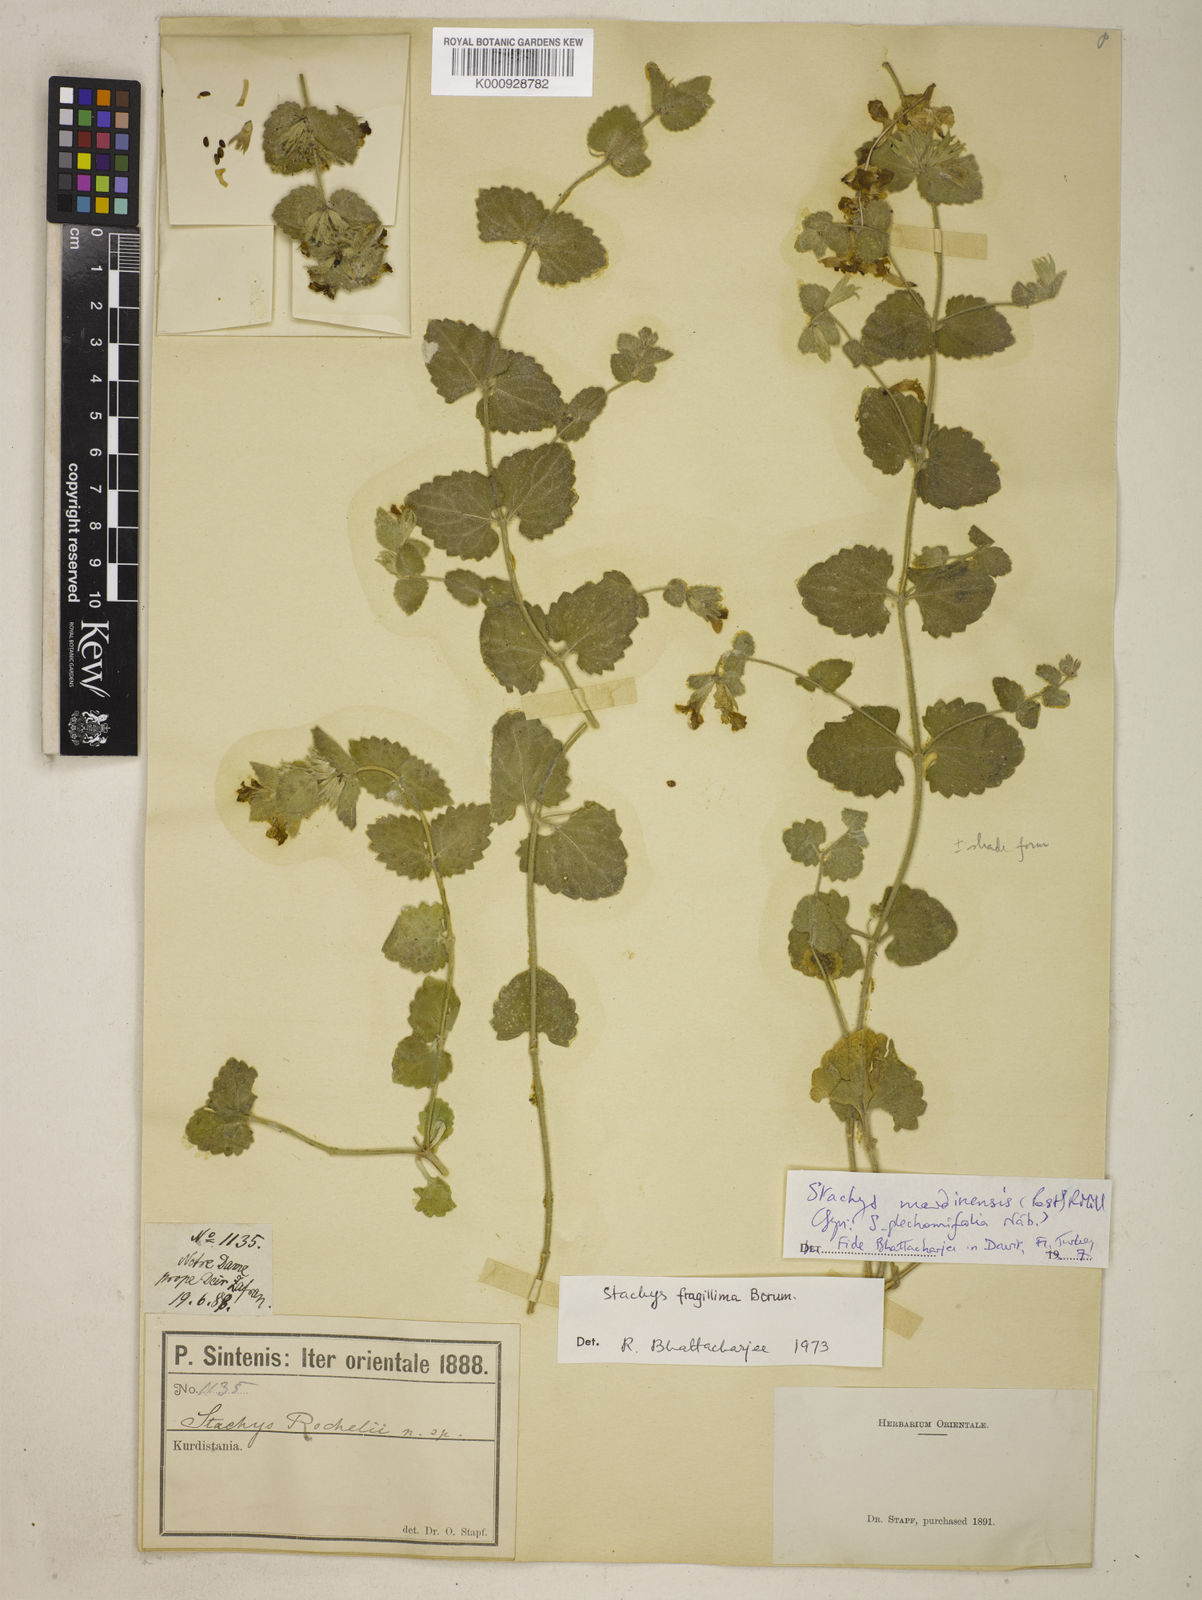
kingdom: Plantae
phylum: Tracheophyta
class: Magnoliopsida
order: Lamiales
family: Lamiaceae
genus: Stachys
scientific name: Stachys mardinensis
